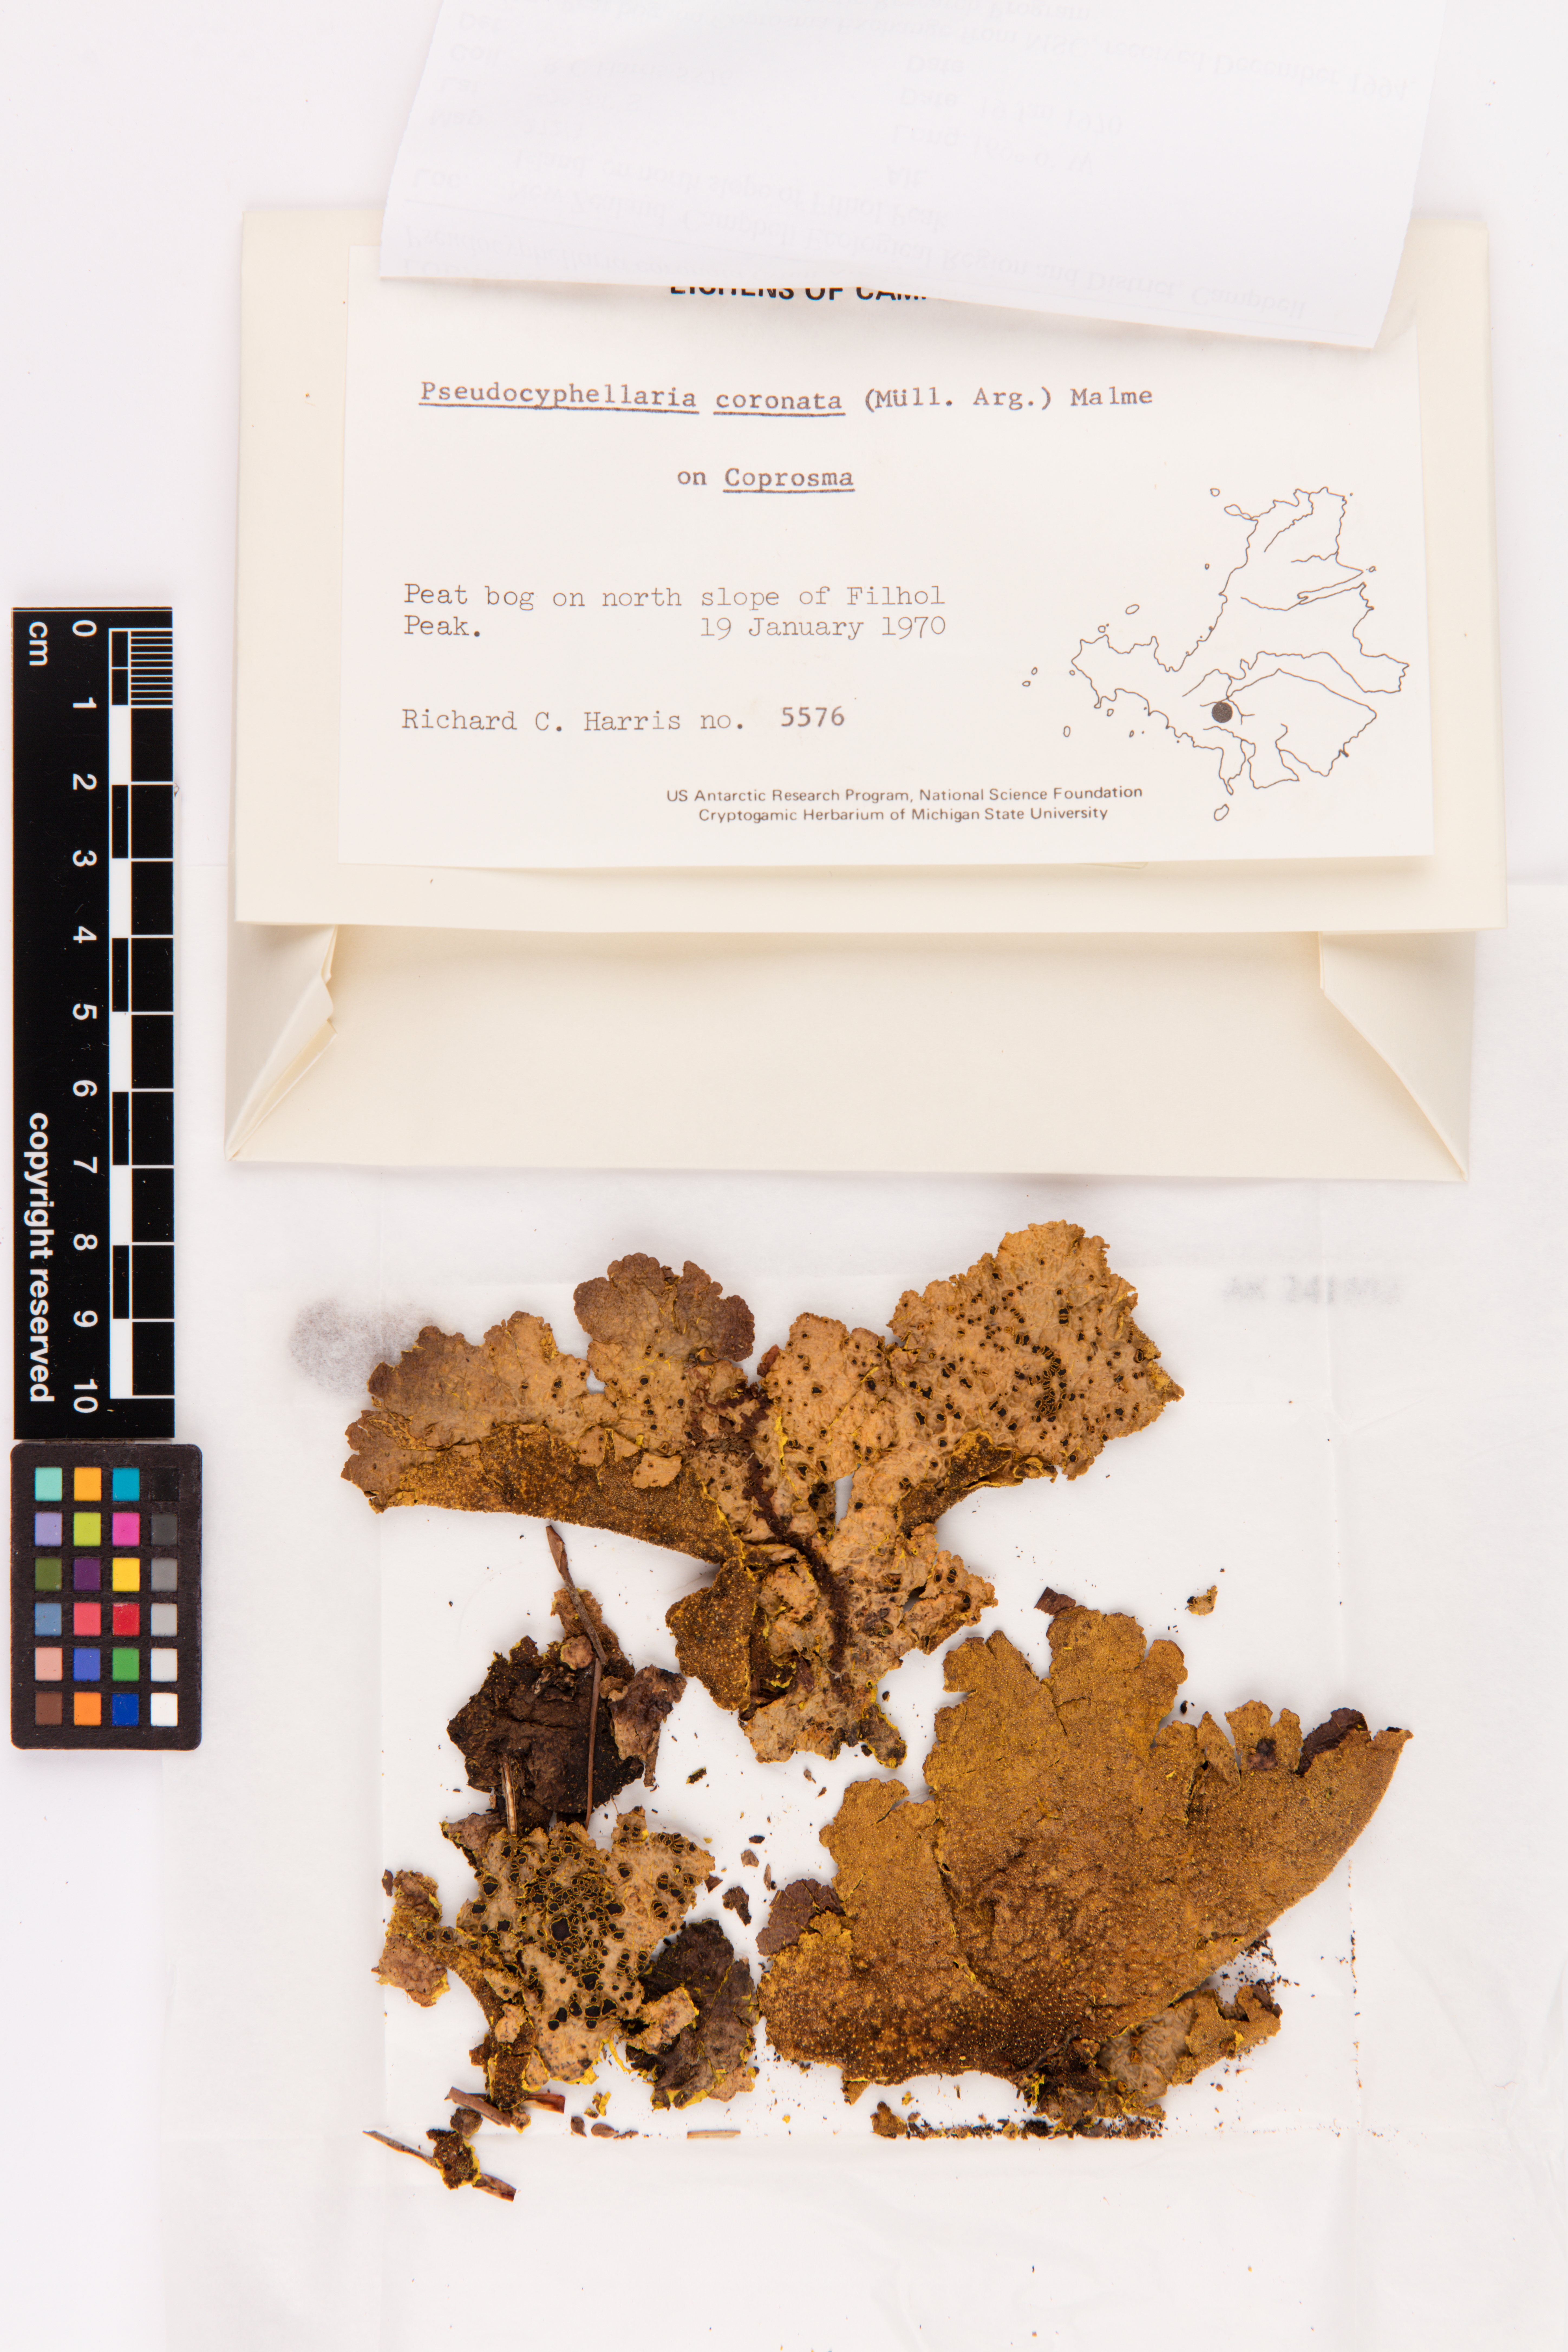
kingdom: Fungi
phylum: Ascomycota
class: Lecanoromycetes
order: Peltigerales
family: Lobariaceae
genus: Yarrumia
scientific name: Yarrumia coronata
